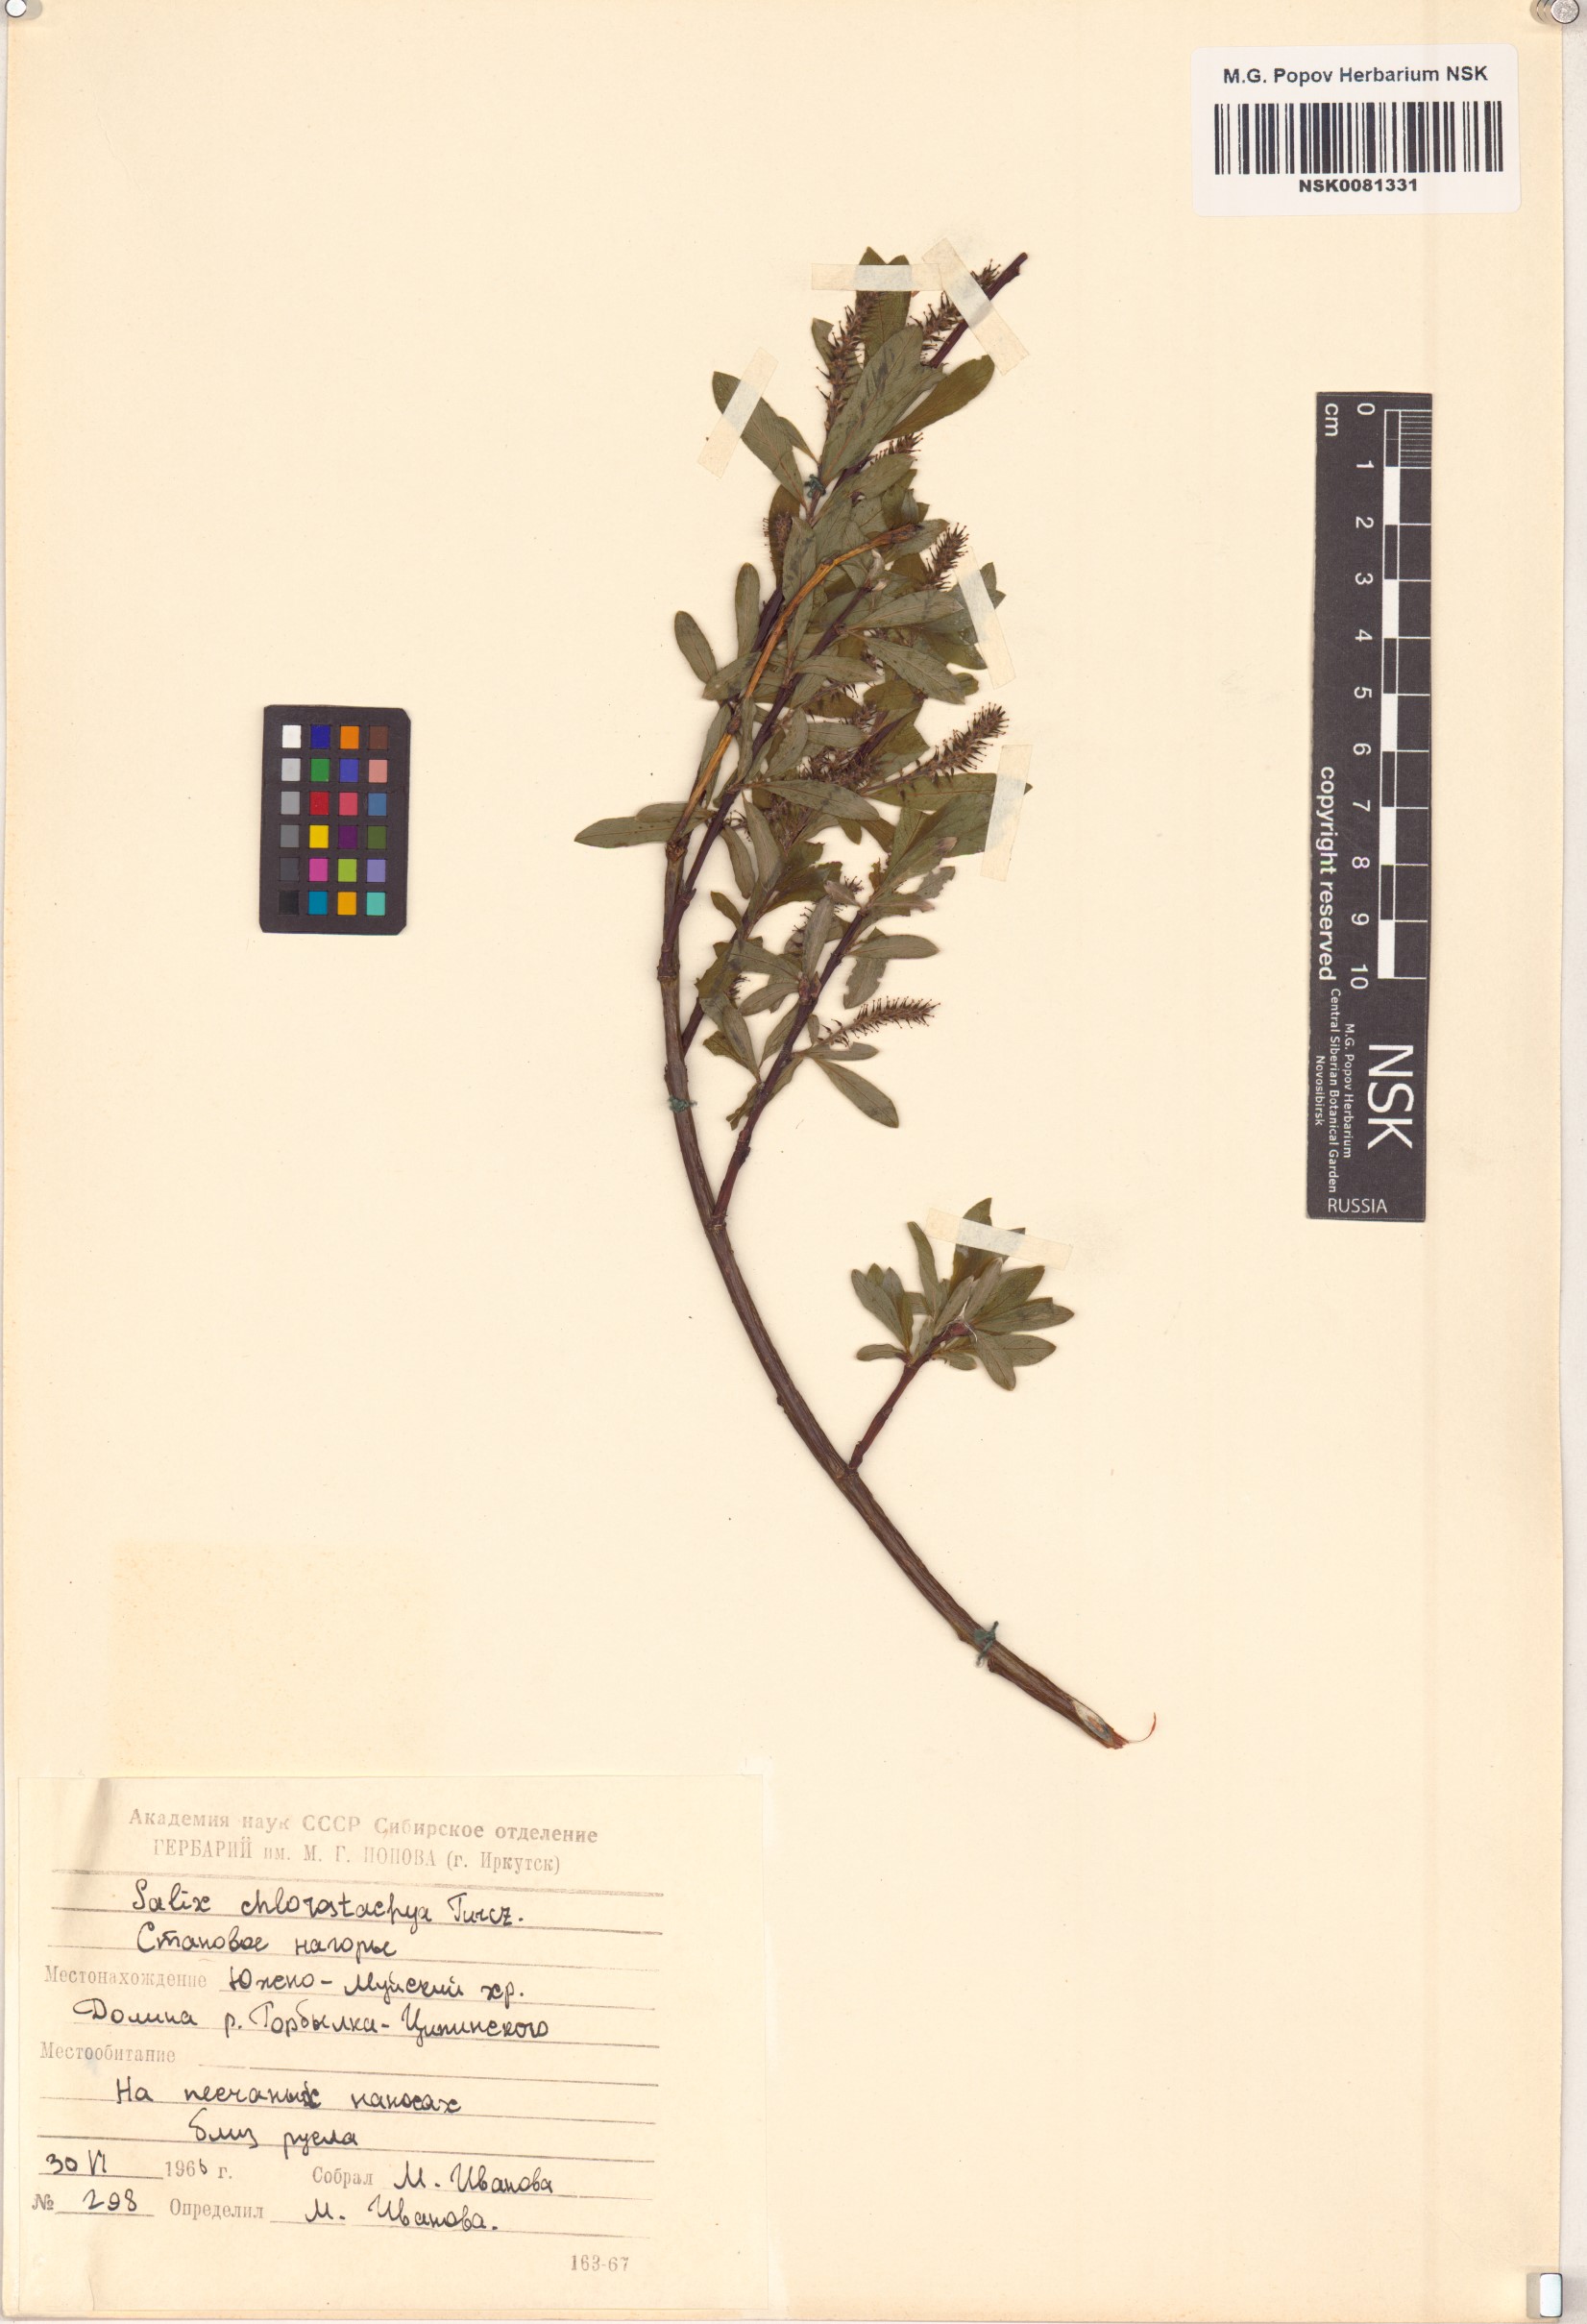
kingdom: Plantae
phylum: Tracheophyta
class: Magnoliopsida
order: Malpighiales
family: Salicaceae
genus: Salix
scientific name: Salix rhamnifolia
